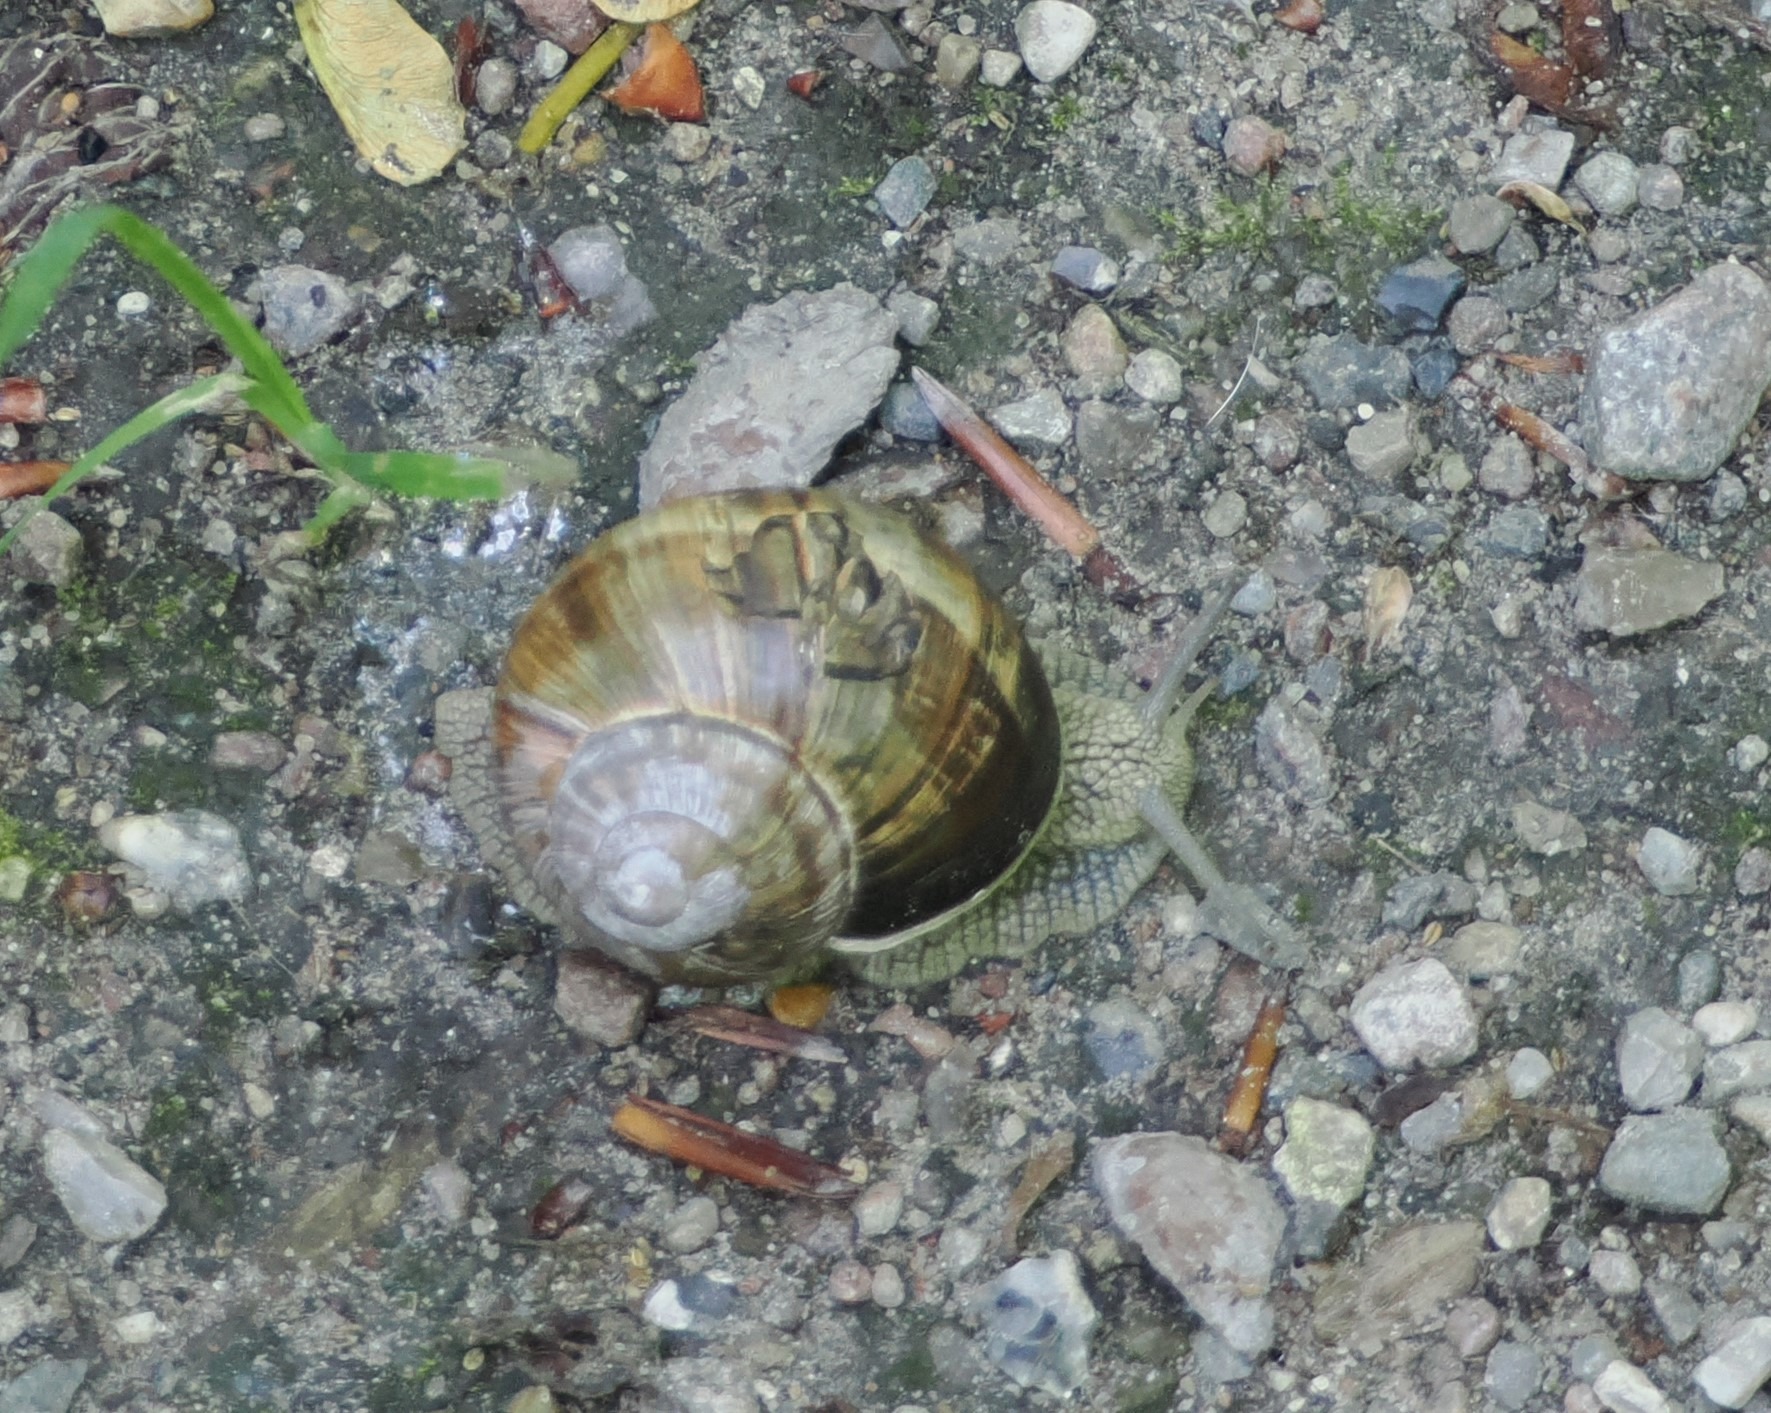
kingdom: Animalia
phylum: Mollusca
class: Gastropoda
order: Stylommatophora
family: Helicidae
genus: Helix
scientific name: Helix pomatia
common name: Vinbjergsnegl
